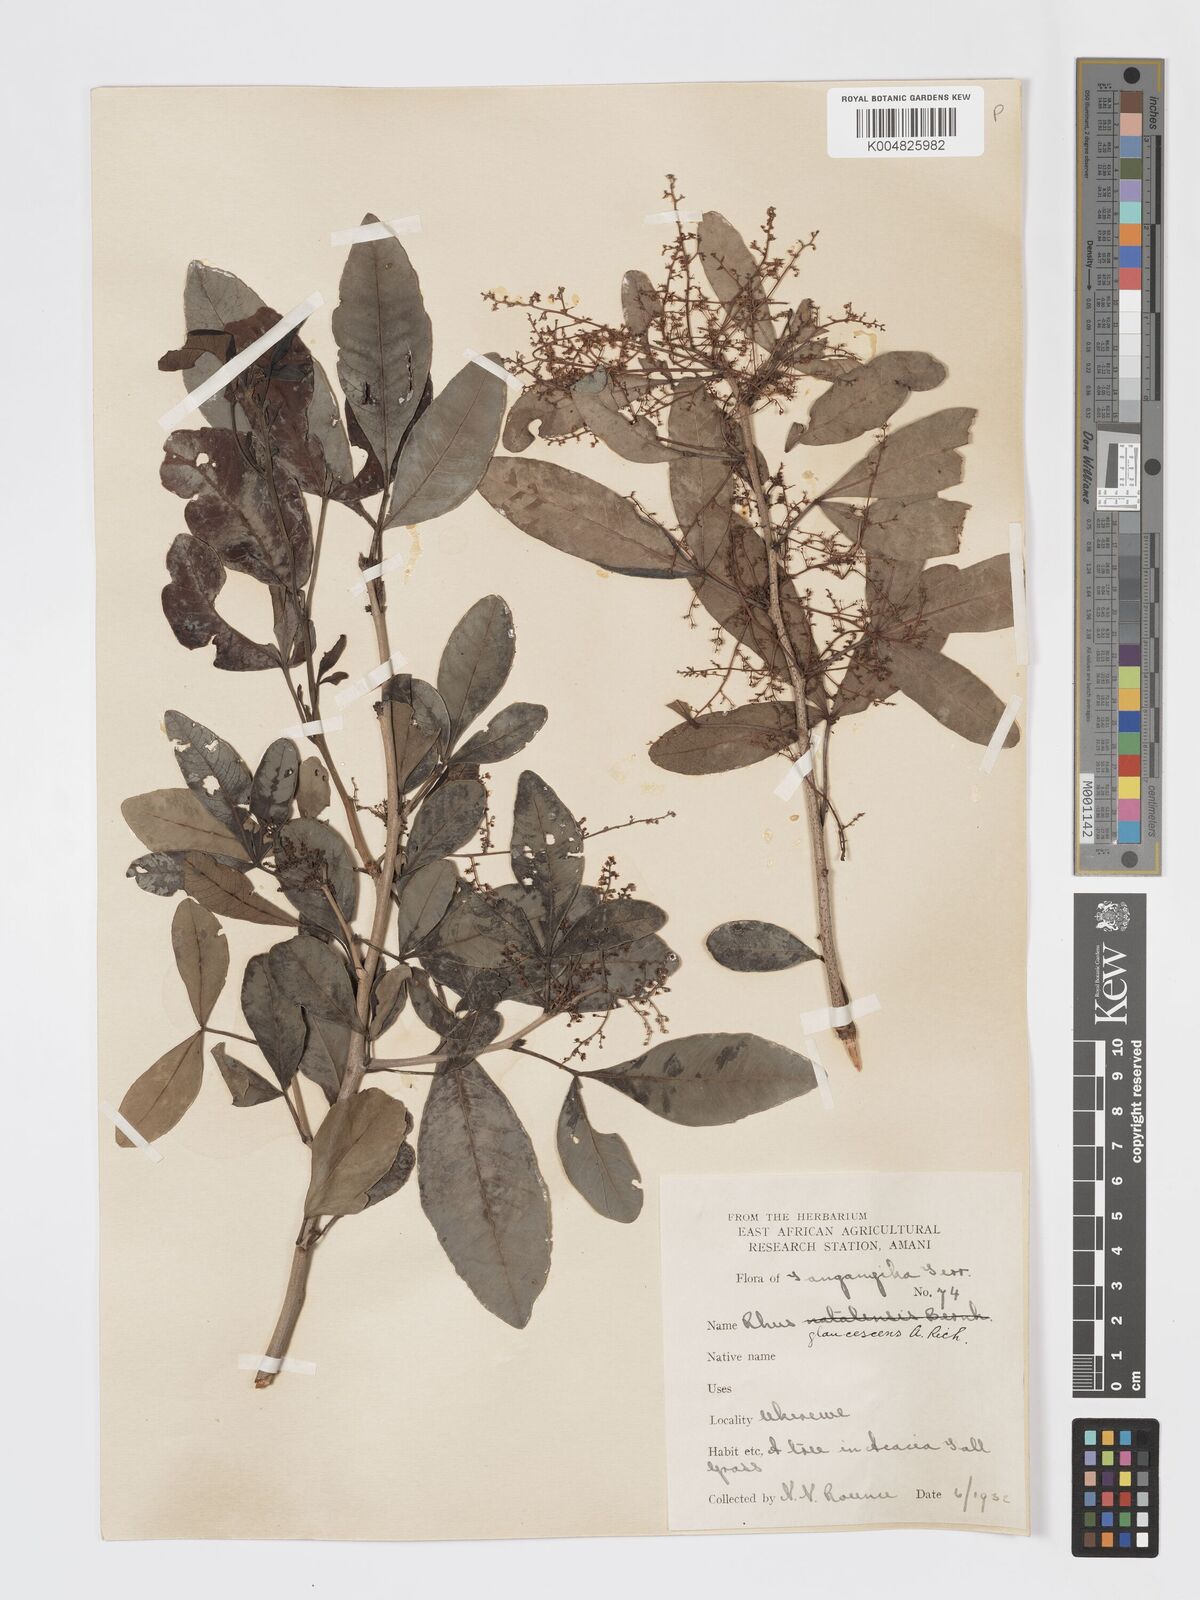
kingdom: Plantae
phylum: Tracheophyta
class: Magnoliopsida
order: Sapindales
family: Anacardiaceae
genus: Searsia
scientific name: Searsia natalensis
